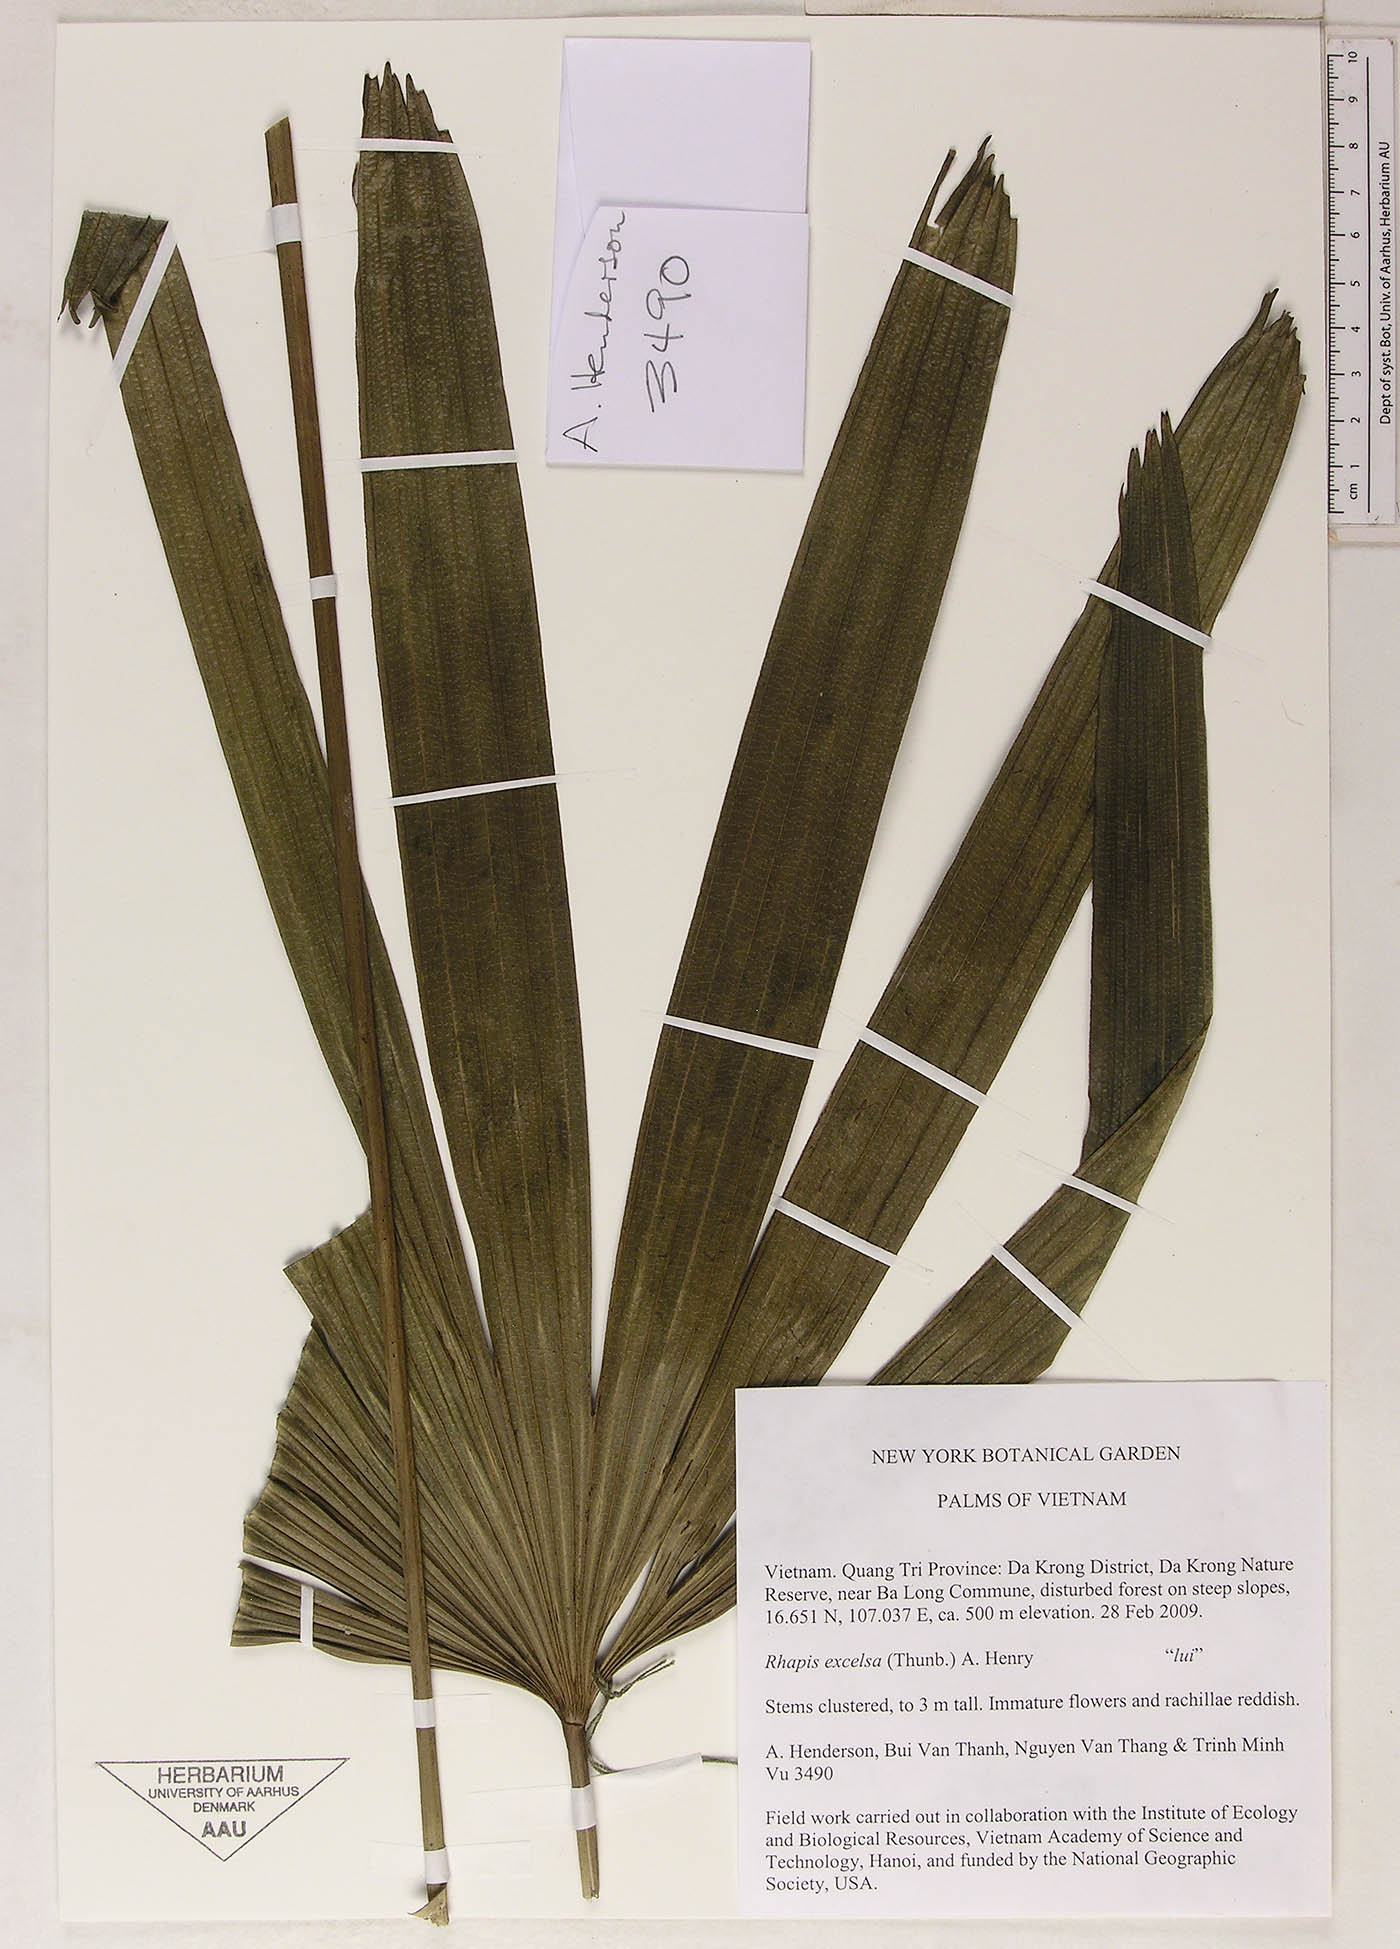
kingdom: Plantae
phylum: Tracheophyta
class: Liliopsida
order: Arecales
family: Arecaceae
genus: Rhapis
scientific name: Rhapis excelsa
